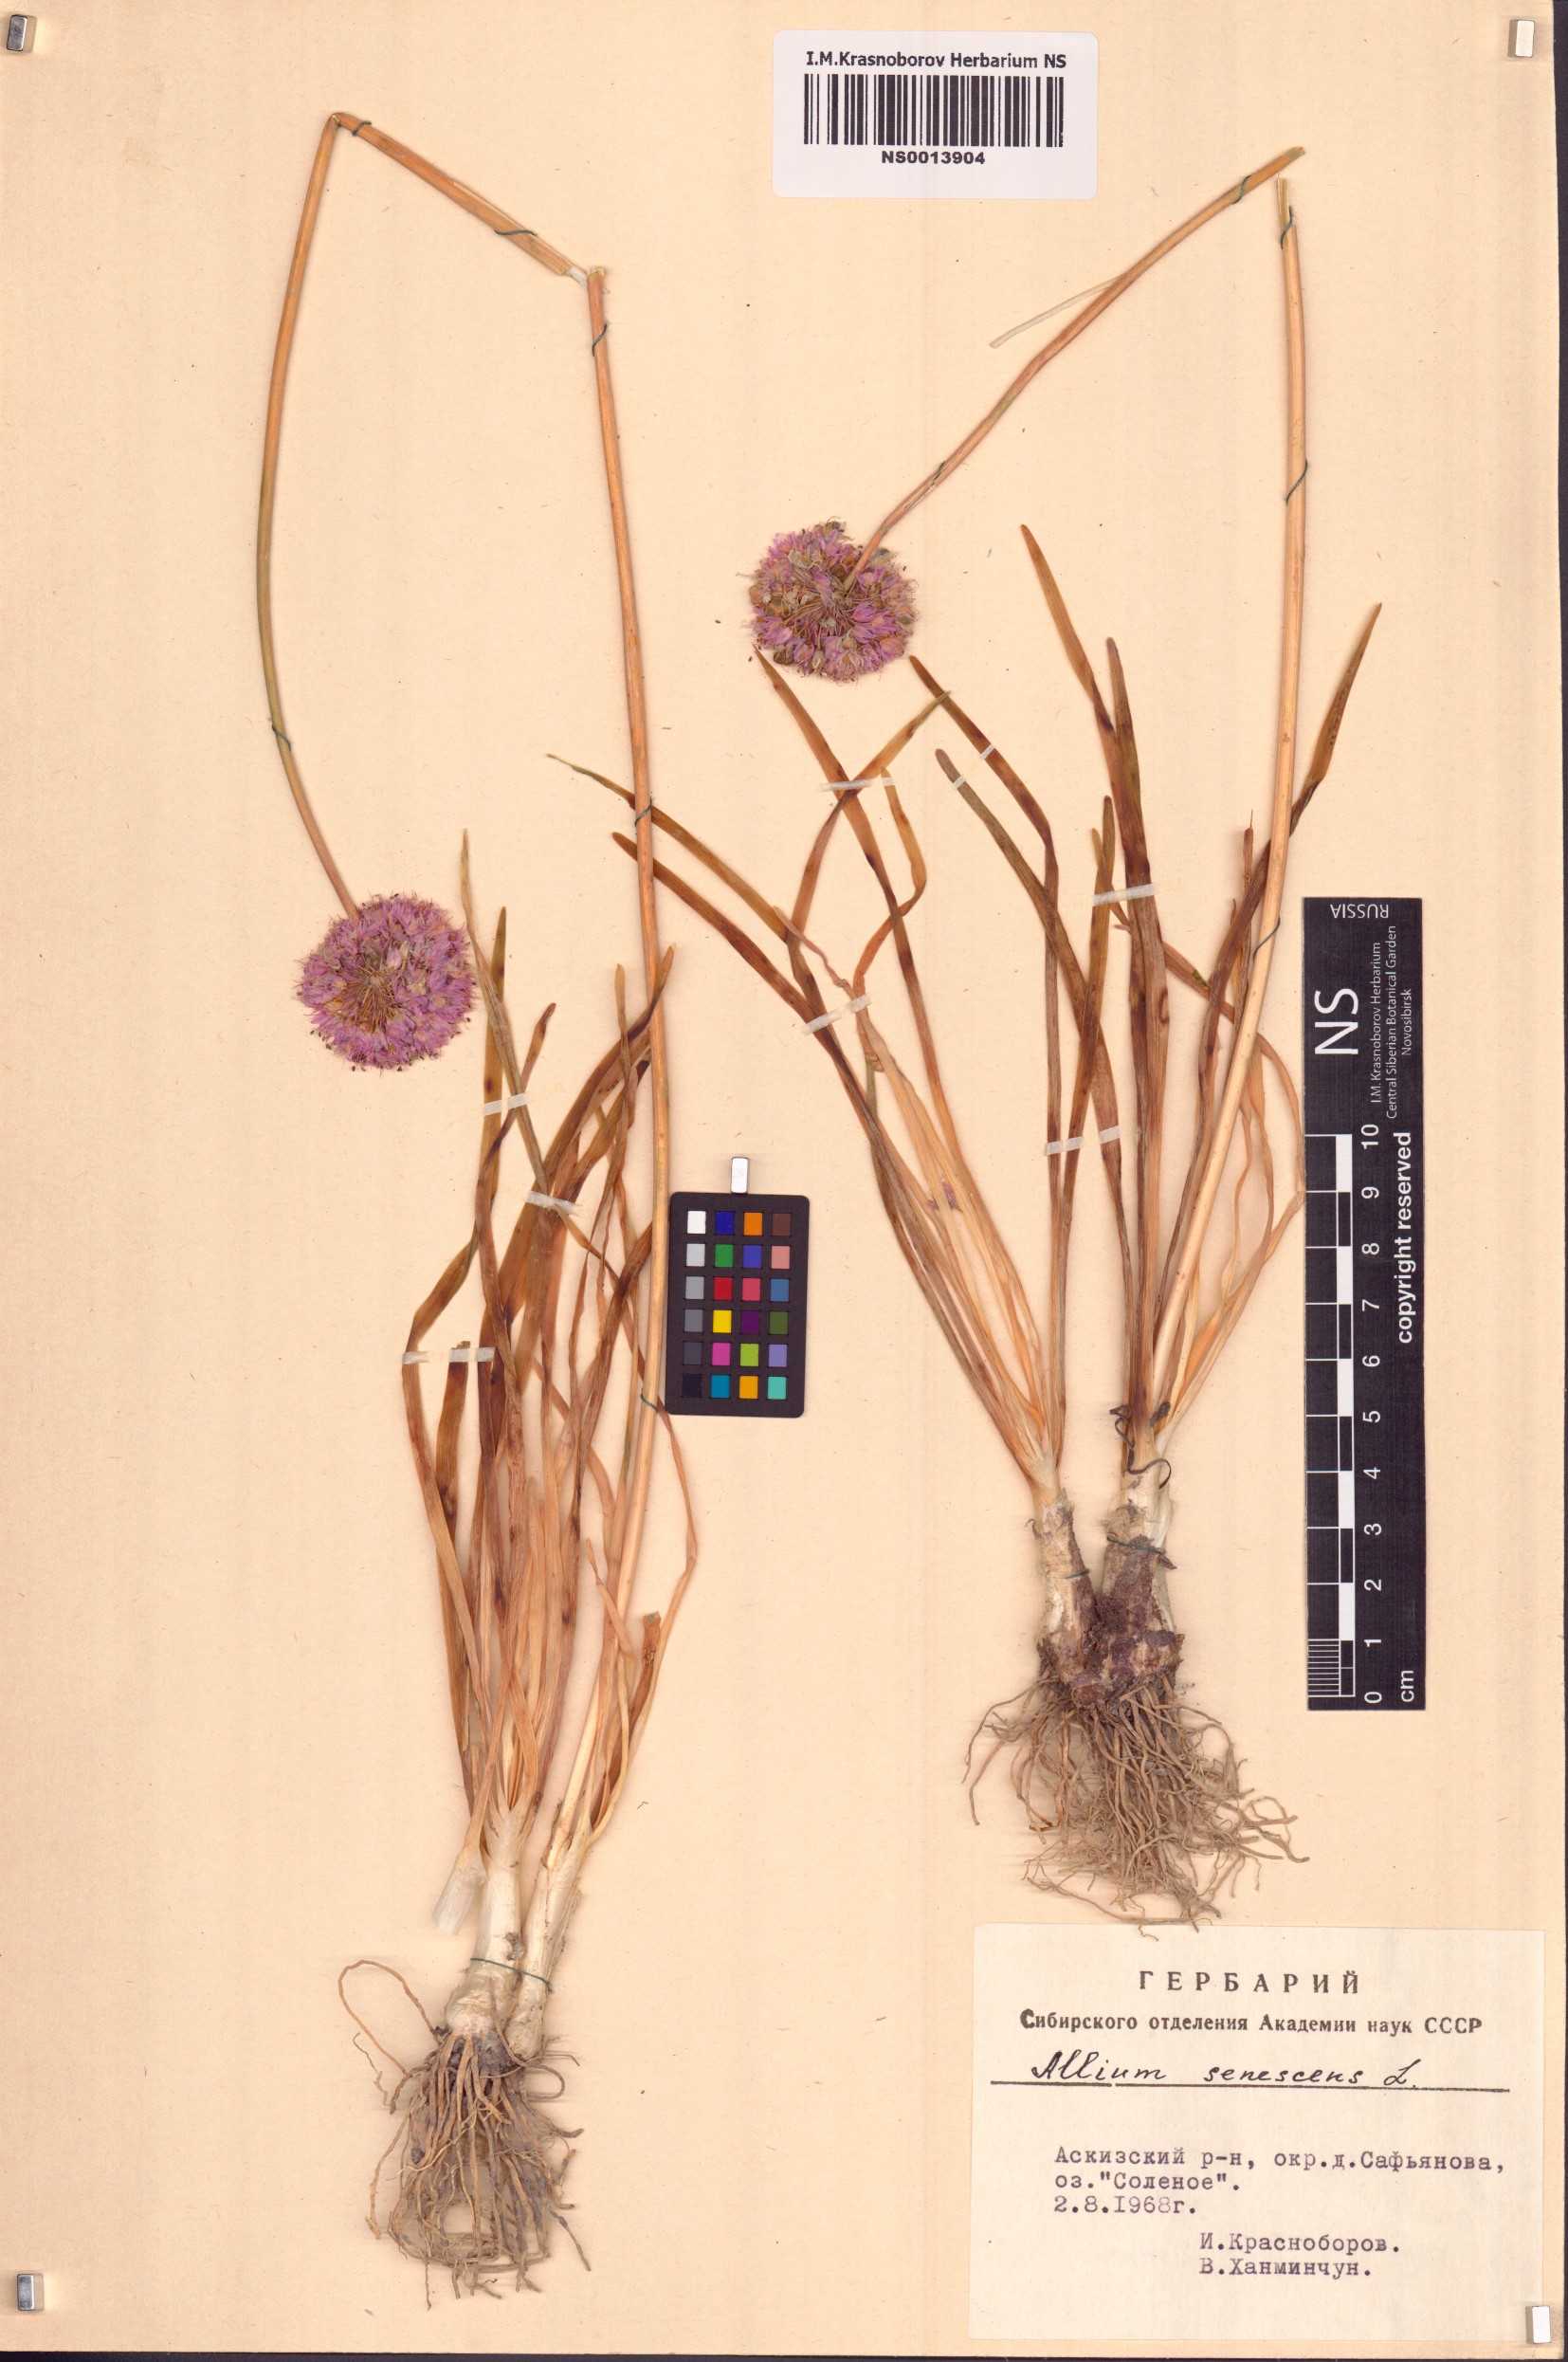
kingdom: Plantae
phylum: Tracheophyta
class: Liliopsida
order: Asparagales
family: Amaryllidaceae
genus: Allium
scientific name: Allium senescens
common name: German garlic
